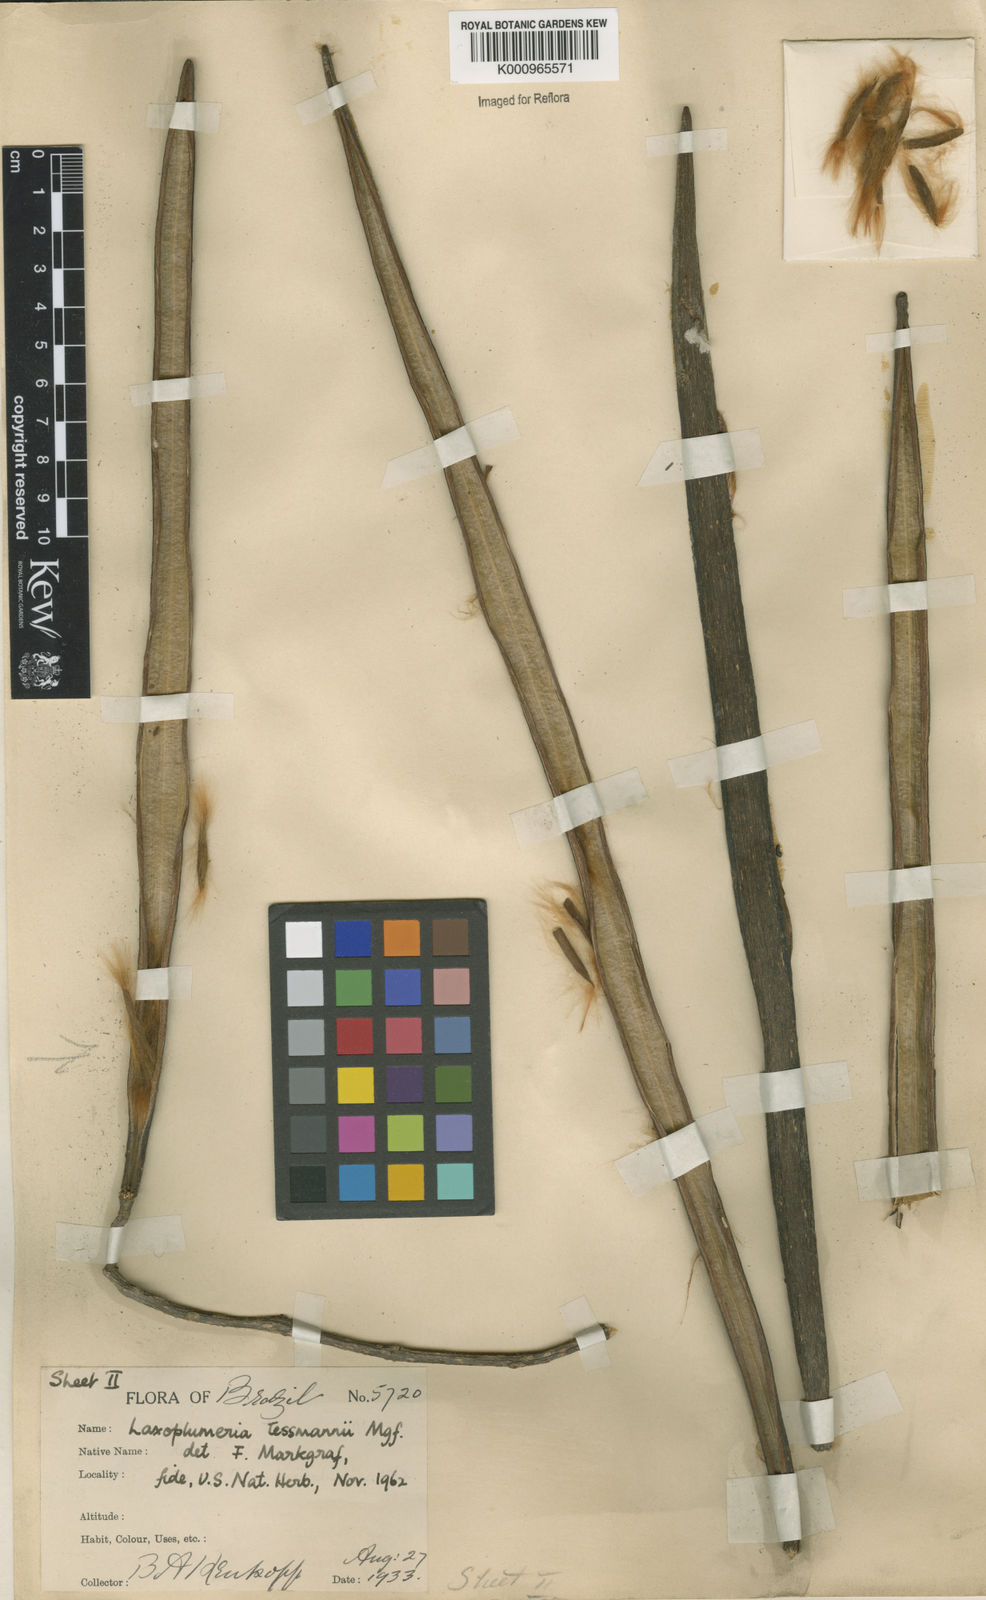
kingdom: Plantae
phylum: Tracheophyta
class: Magnoliopsida
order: Gentianales
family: Apocynaceae
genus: Laxoplumeria
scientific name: Laxoplumeria tessmannii
